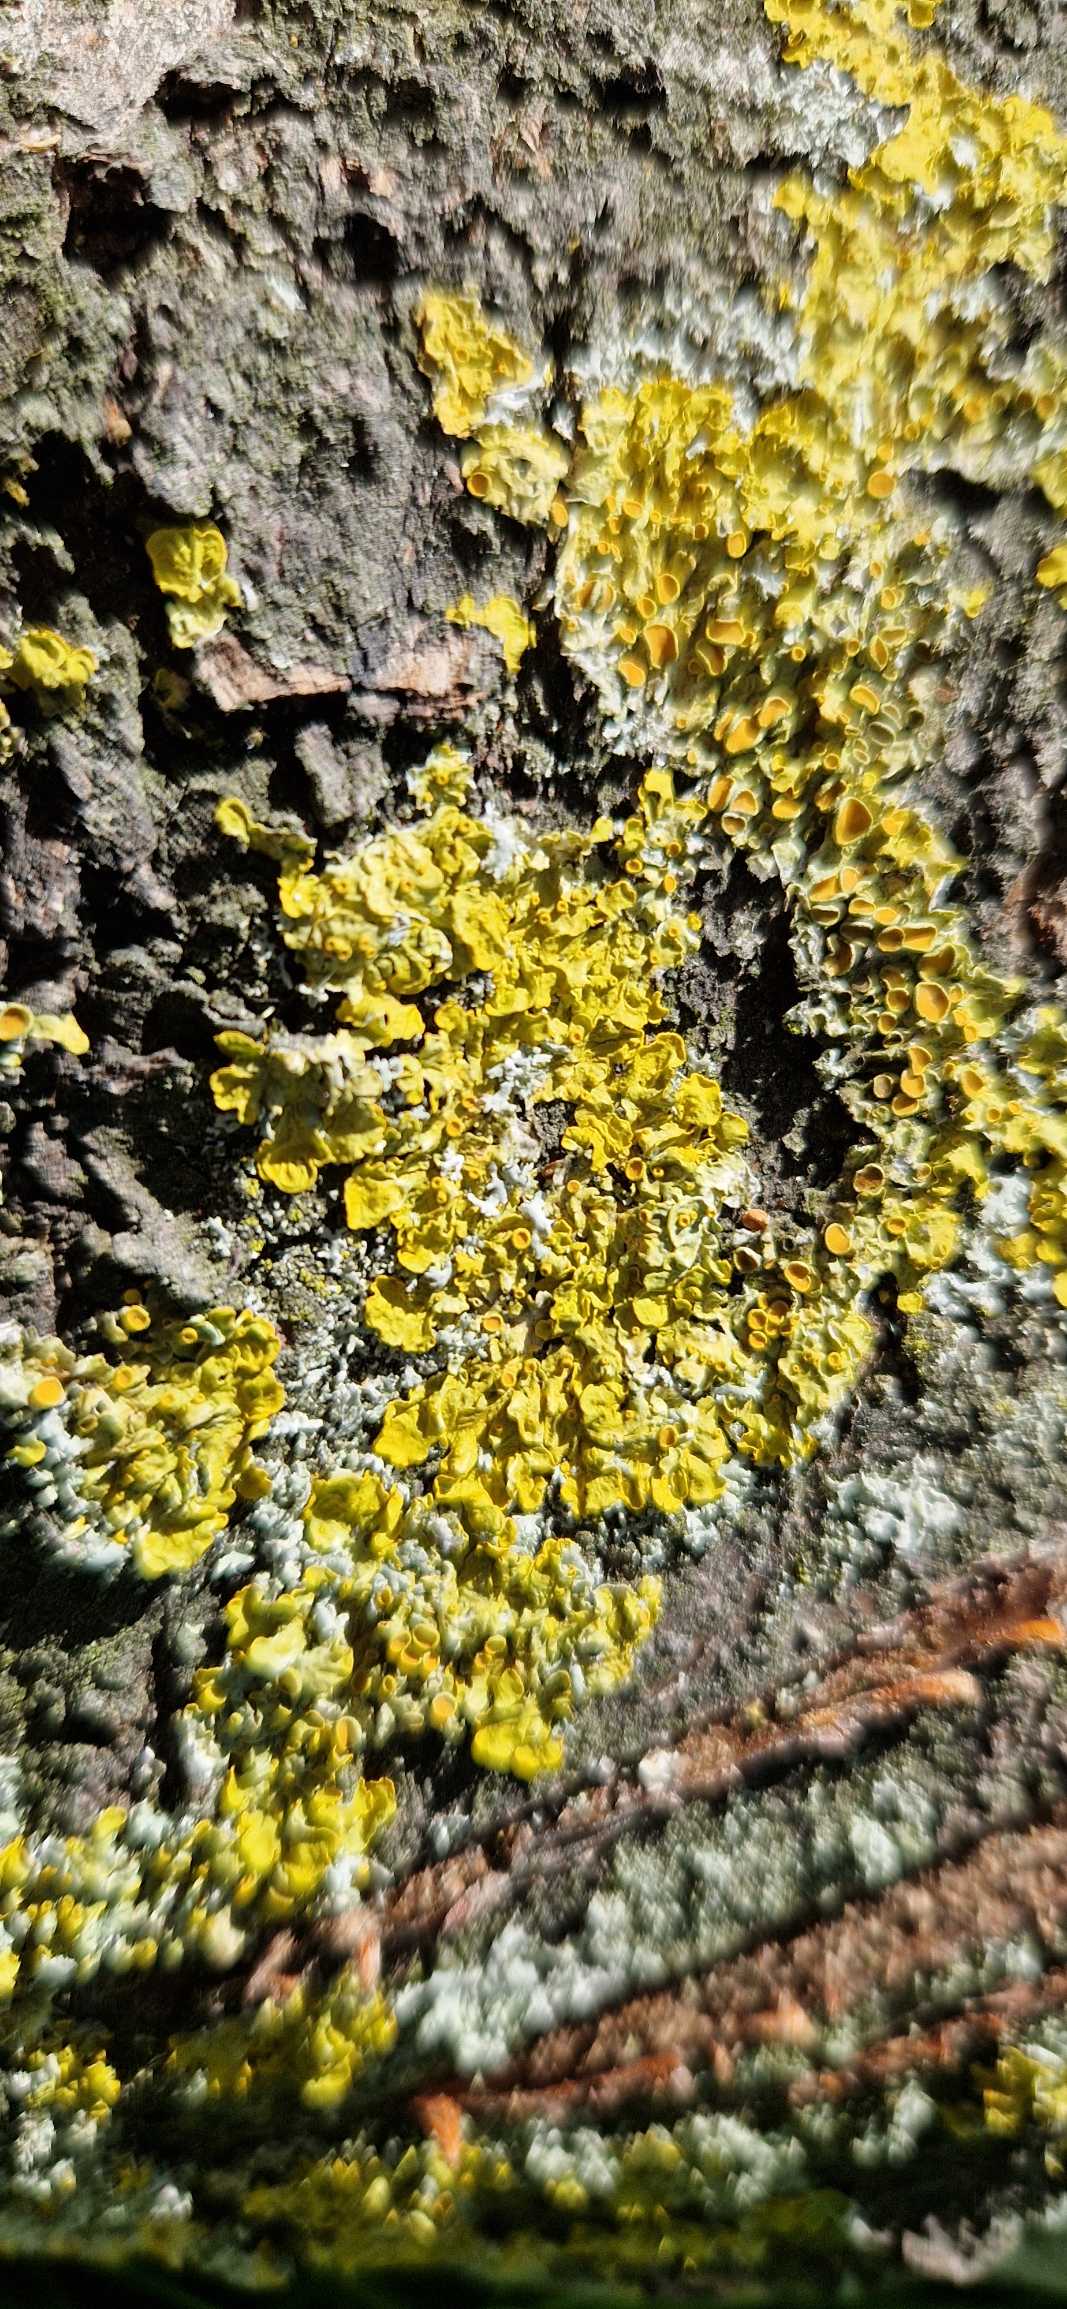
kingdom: Fungi
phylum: Ascomycota
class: Lecanoromycetes
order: Teloschistales
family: Teloschistaceae
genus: Xanthoria
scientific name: Xanthoria parietina
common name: Almindelig væggelav
